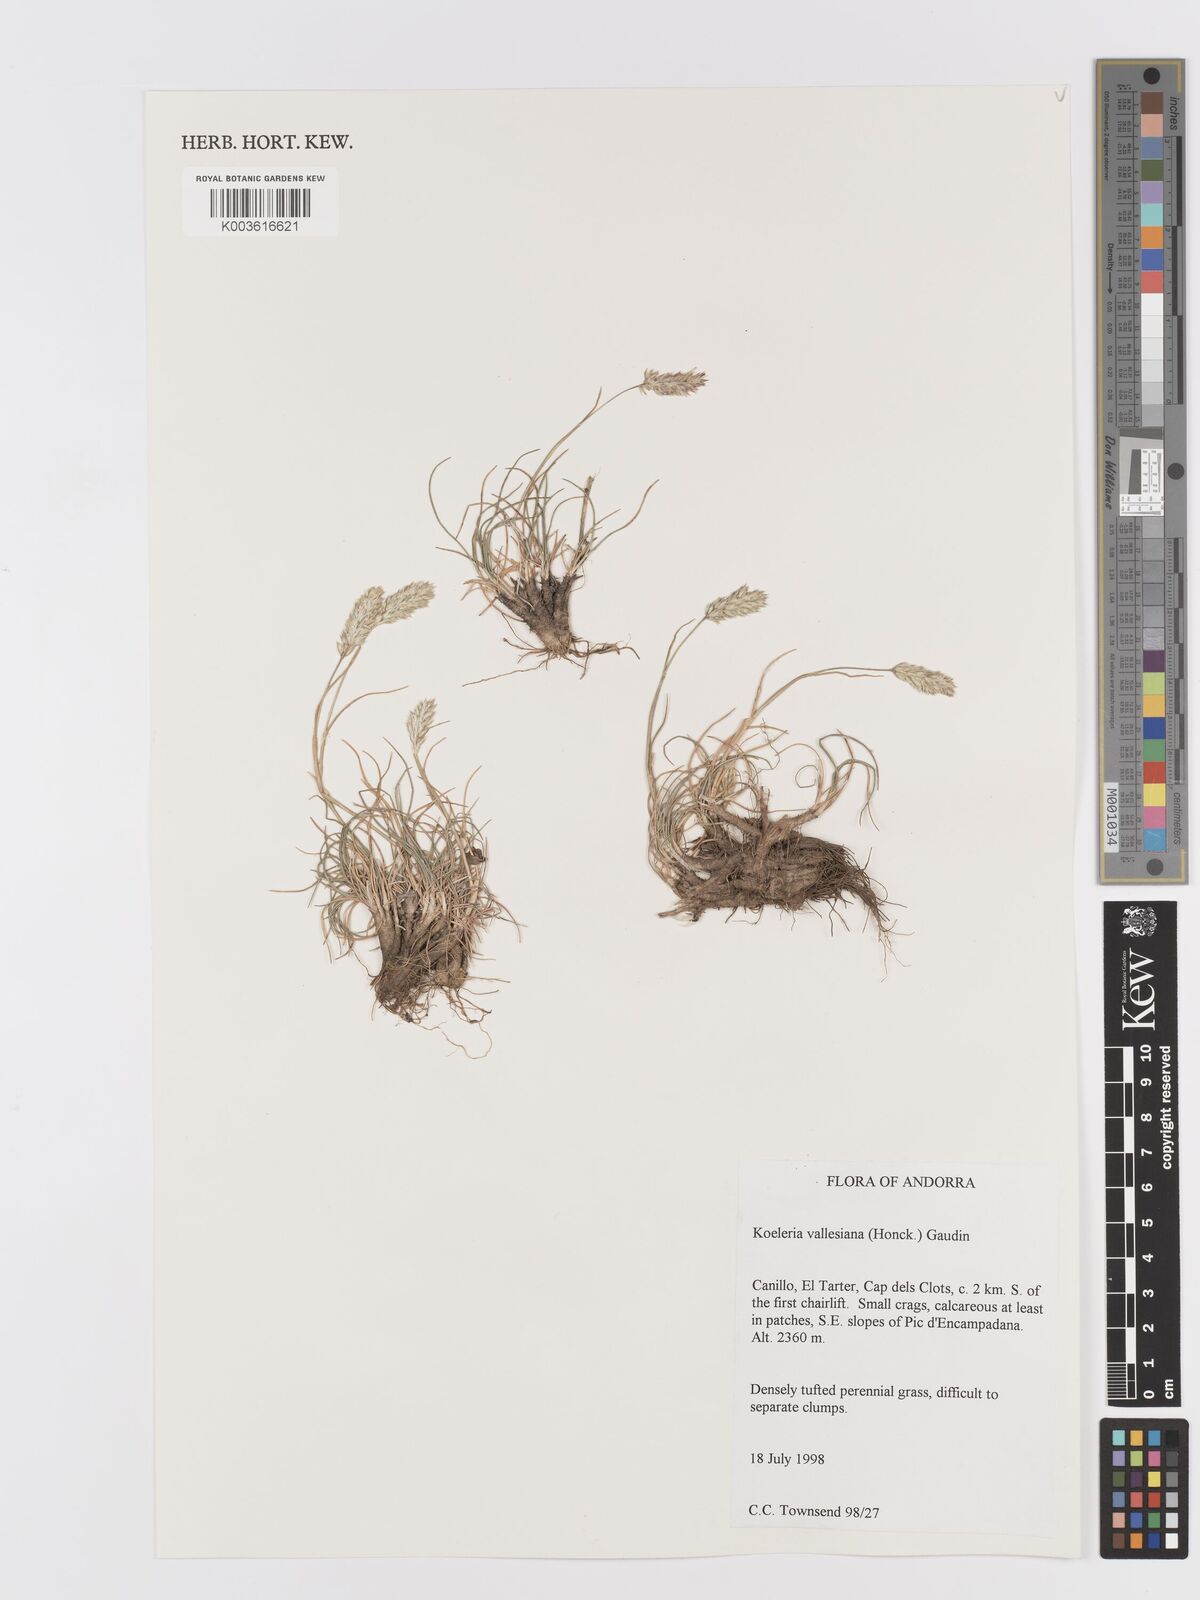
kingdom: Plantae
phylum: Tracheophyta
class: Liliopsida
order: Poales
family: Poaceae
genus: Koeleria
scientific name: Koeleria vallesiana
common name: Somerset hair-grass
